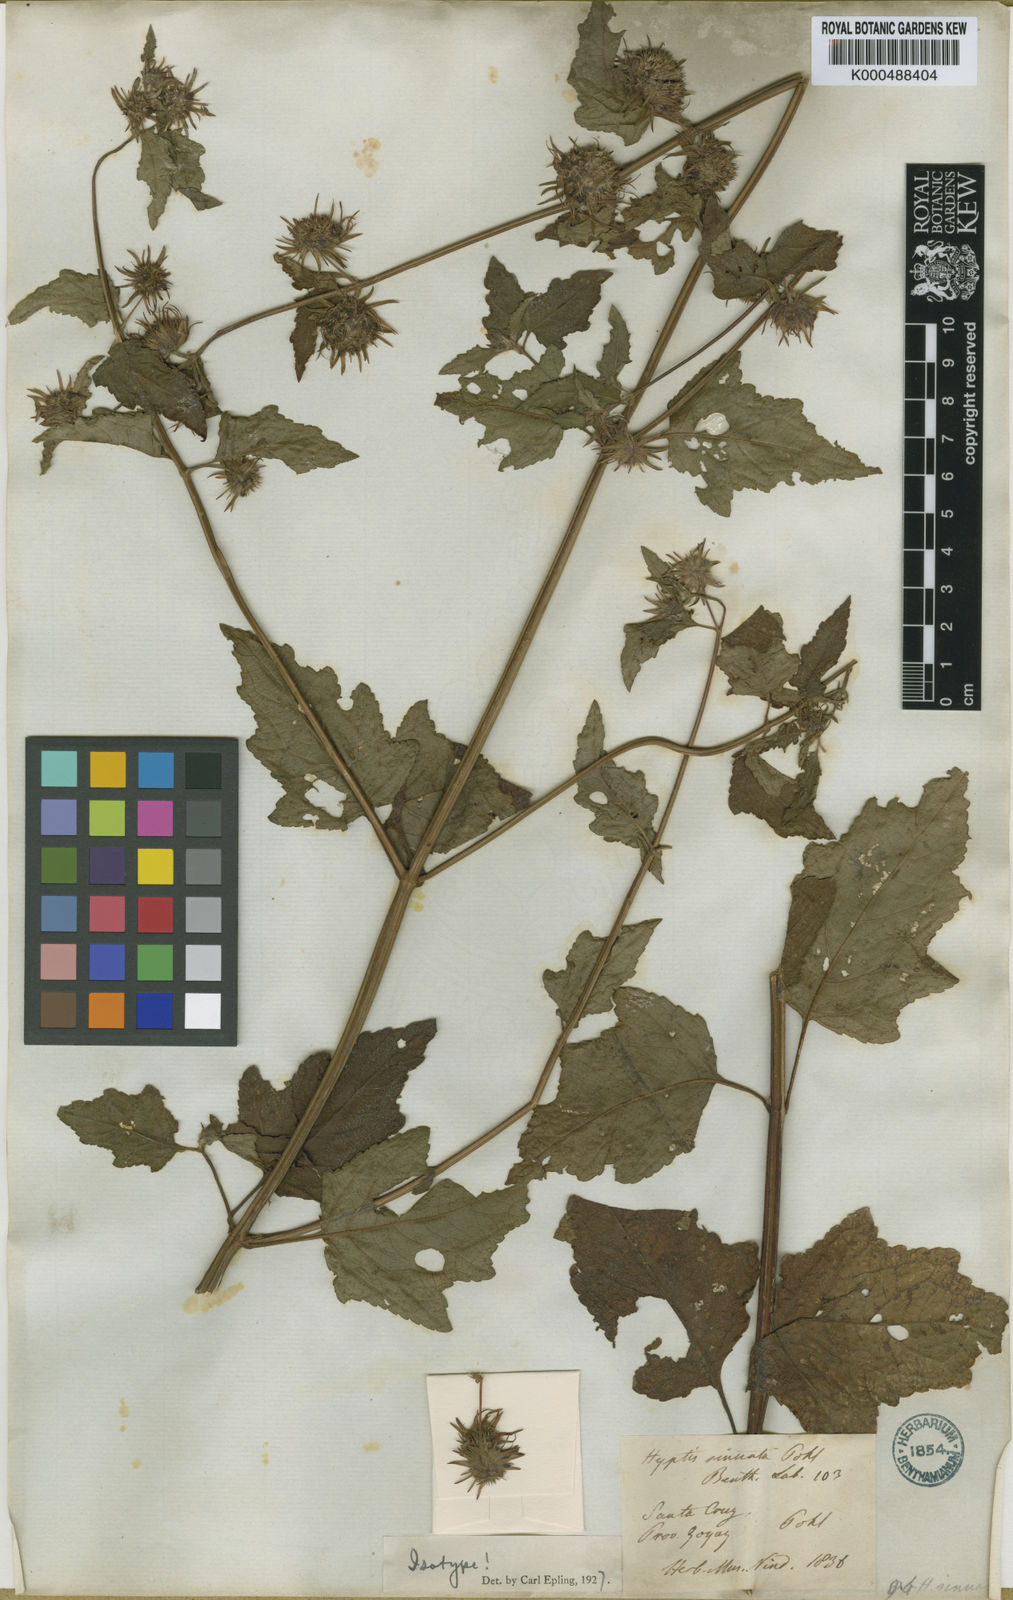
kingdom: Plantae
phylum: Tracheophyta
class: Magnoliopsida
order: Lamiales
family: Lamiaceae
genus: Hyptis
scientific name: Hyptis sinuata
